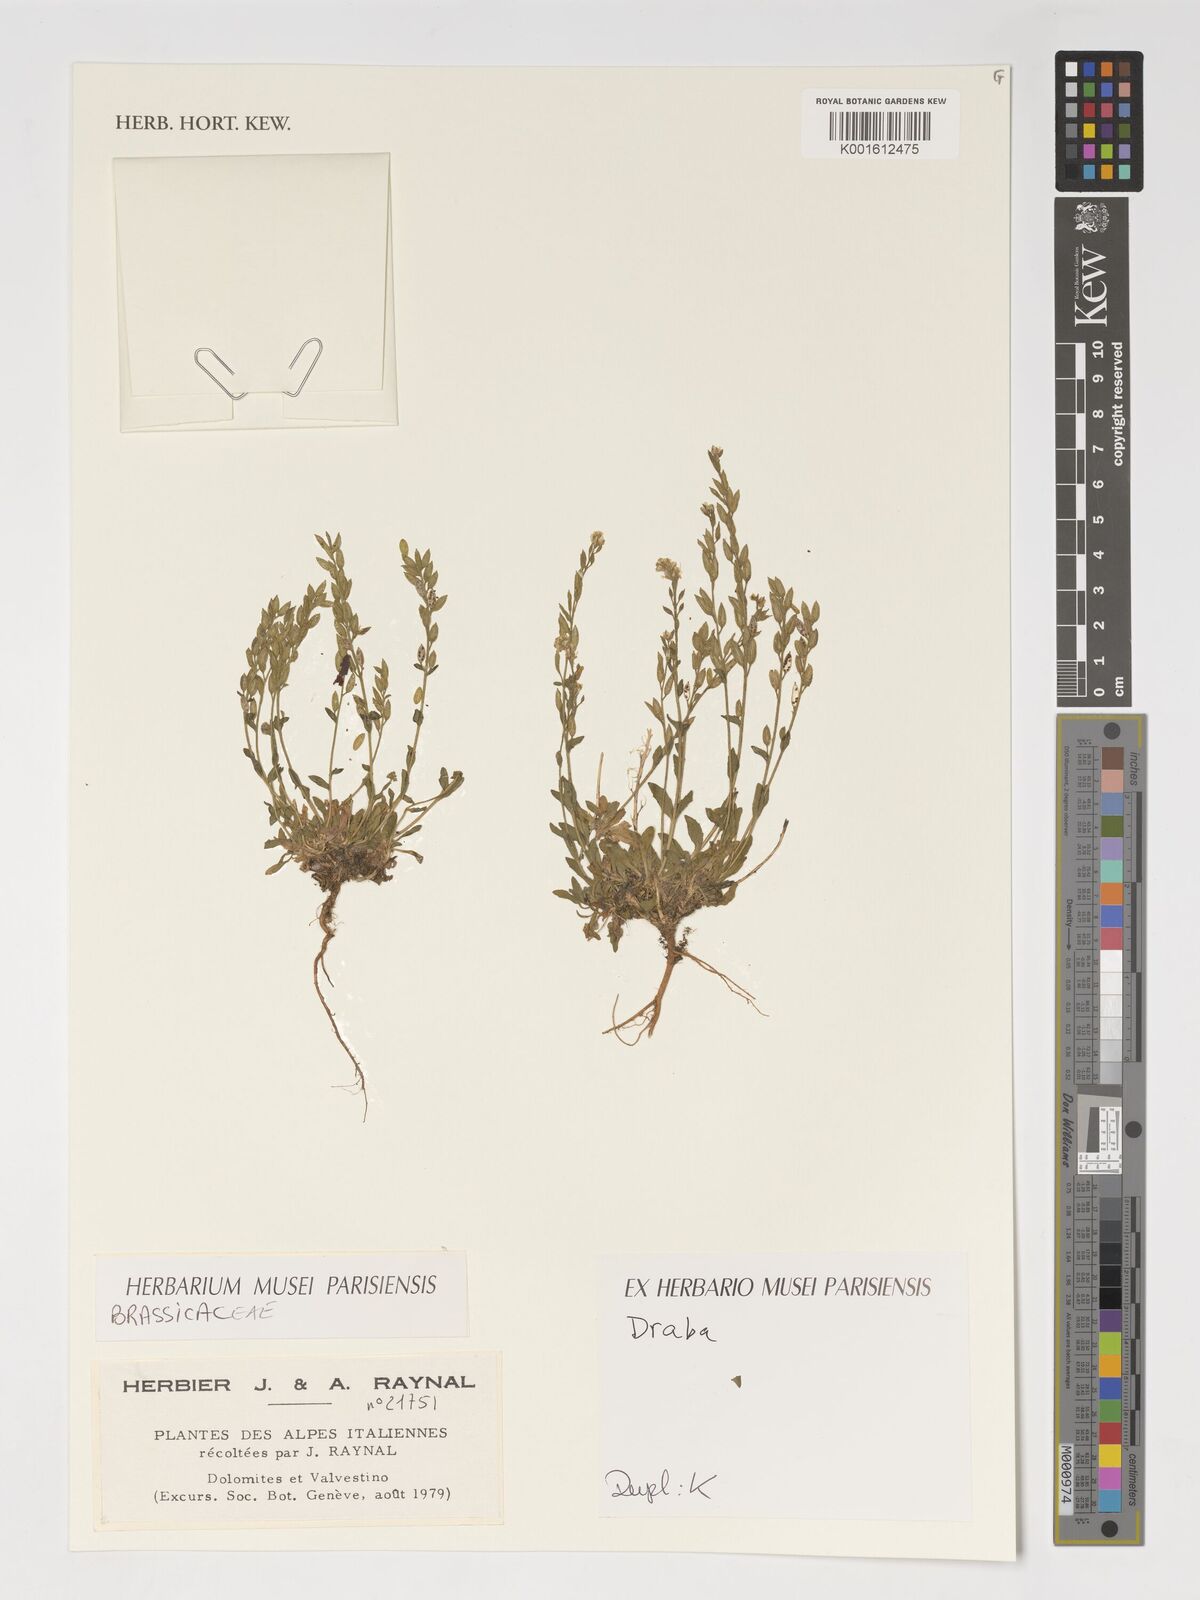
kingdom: Plantae
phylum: Tracheophyta
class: Magnoliopsida
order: Brassicales
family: Brassicaceae
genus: Draba
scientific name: Draba
